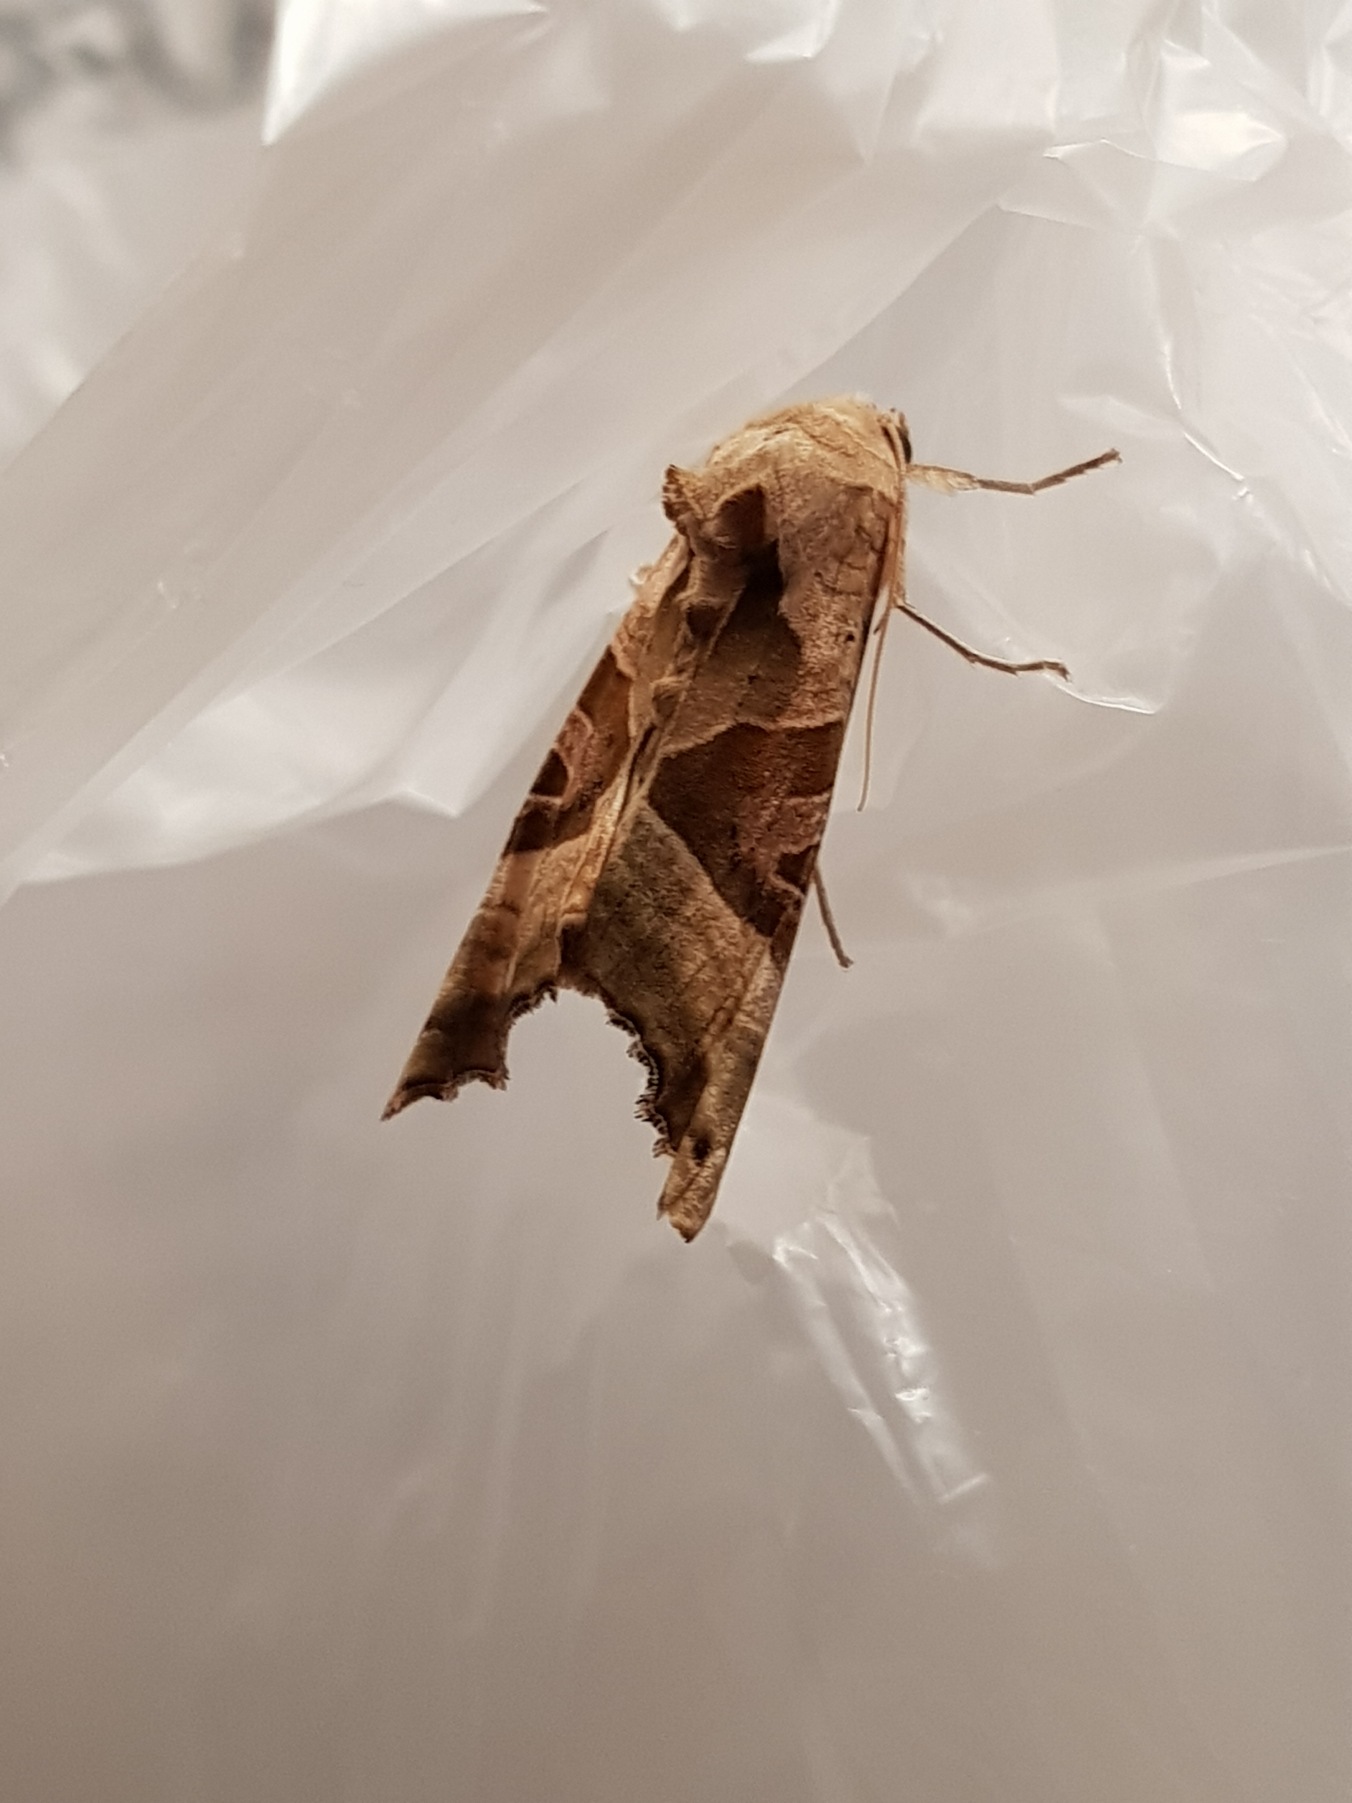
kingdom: Animalia
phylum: Arthropoda
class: Insecta
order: Lepidoptera
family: Noctuidae
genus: Phlogophora
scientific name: Phlogophora meticulosa
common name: Agatugle
